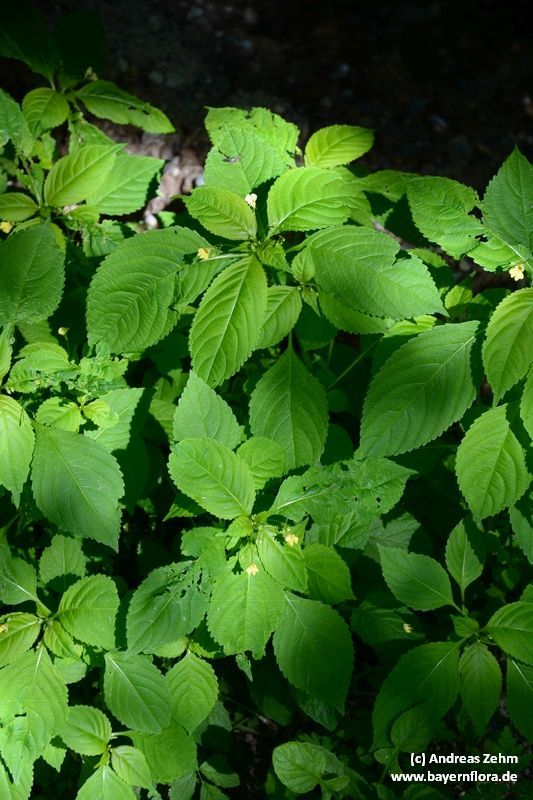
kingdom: Plantae
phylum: Tracheophyta
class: Magnoliopsida
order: Ericales
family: Balsaminaceae
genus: Impatiens
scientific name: Impatiens parviflora
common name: Small balsam
